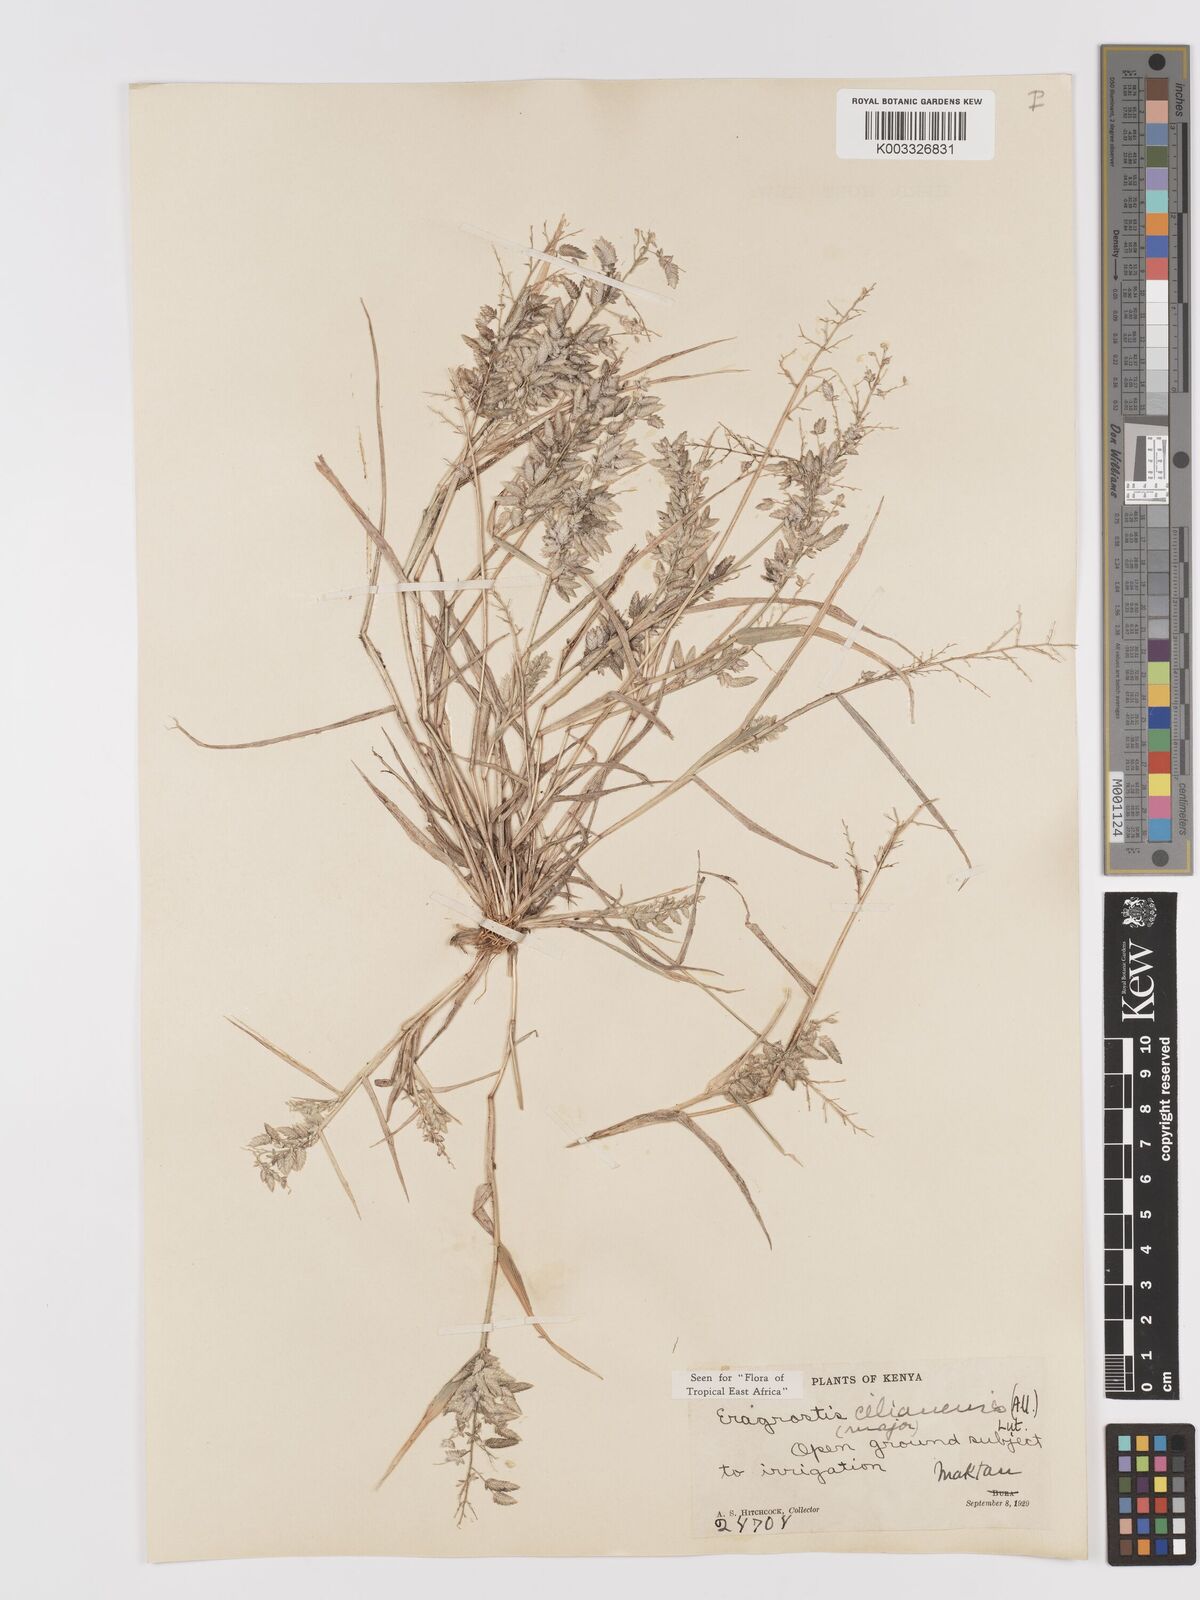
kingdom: Plantae
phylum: Tracheophyta
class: Liliopsida
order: Poales
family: Poaceae
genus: Eragrostis
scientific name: Eragrostis cilianensis
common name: Stinkgrass
